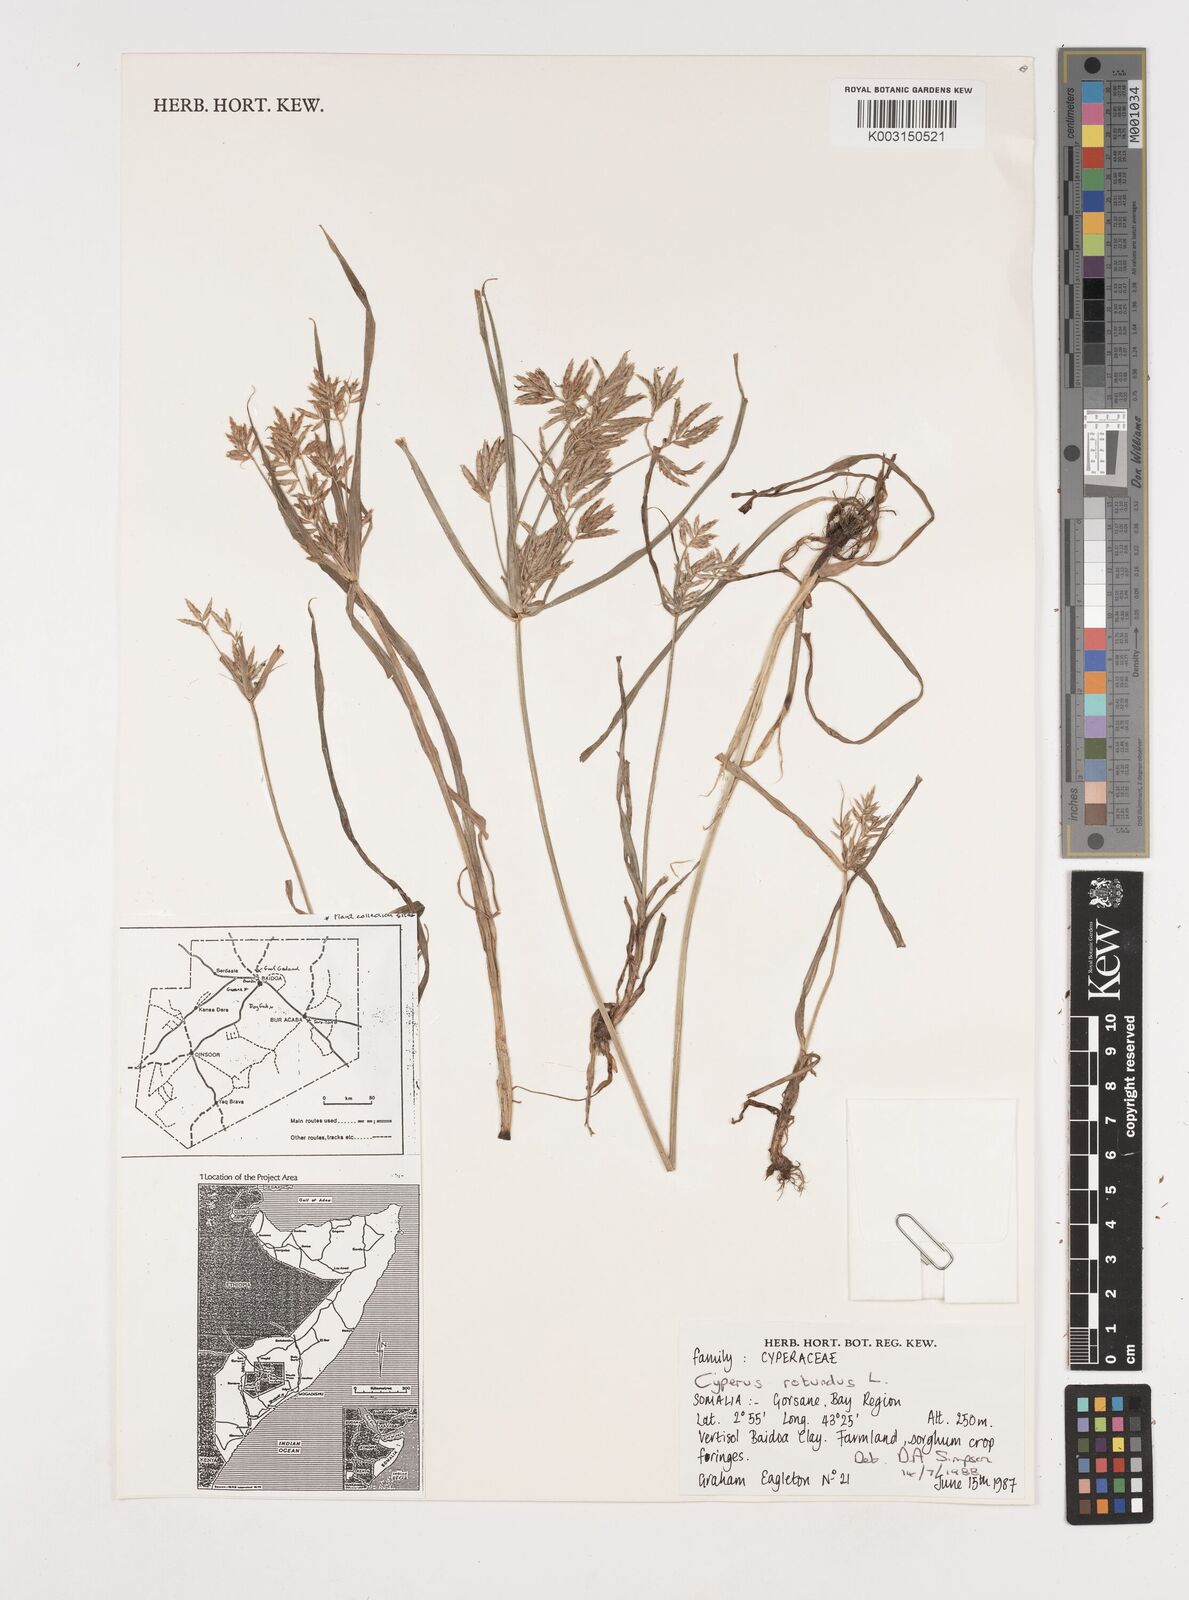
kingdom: Plantae
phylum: Tracheophyta
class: Liliopsida
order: Poales
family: Cyperaceae
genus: Cyperus
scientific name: Cyperus rotundus
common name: Nutgrass
